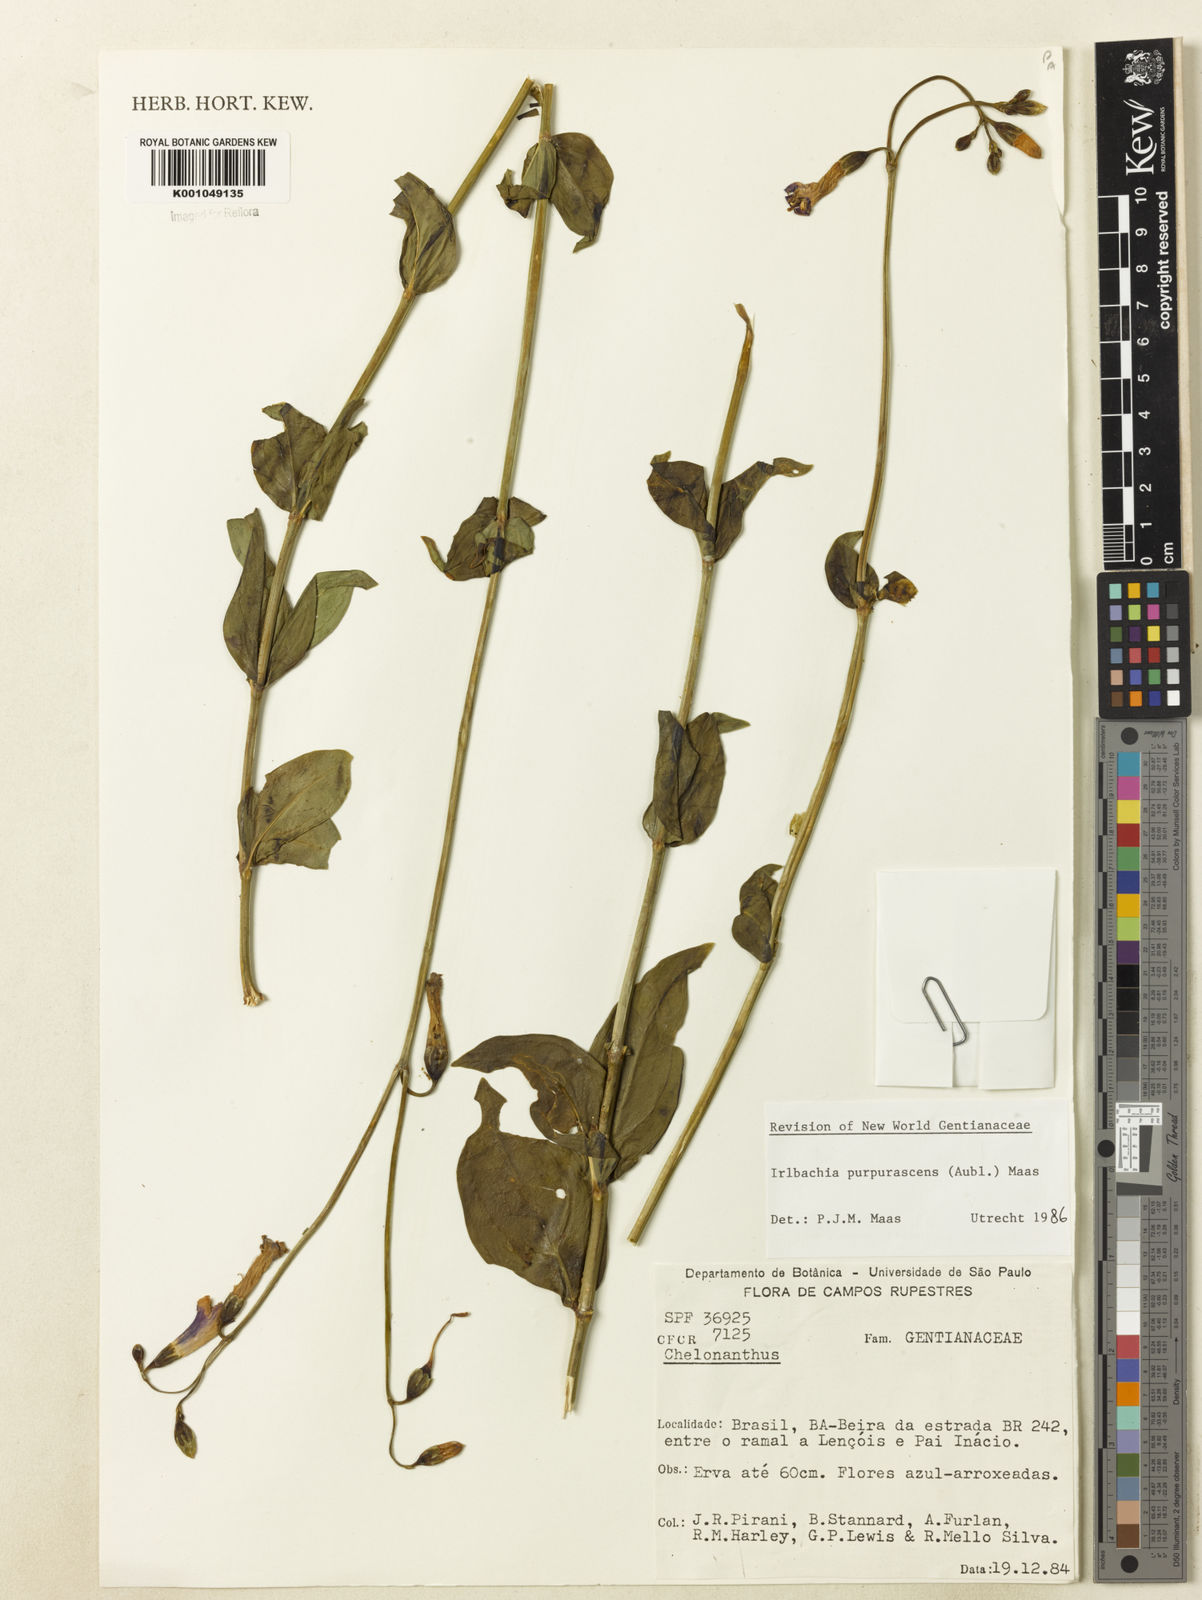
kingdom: Plantae
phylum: Tracheophyta
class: Magnoliopsida
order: Gentianales
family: Gentianaceae
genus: Chelonanthus
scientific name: Chelonanthus purpurascens
